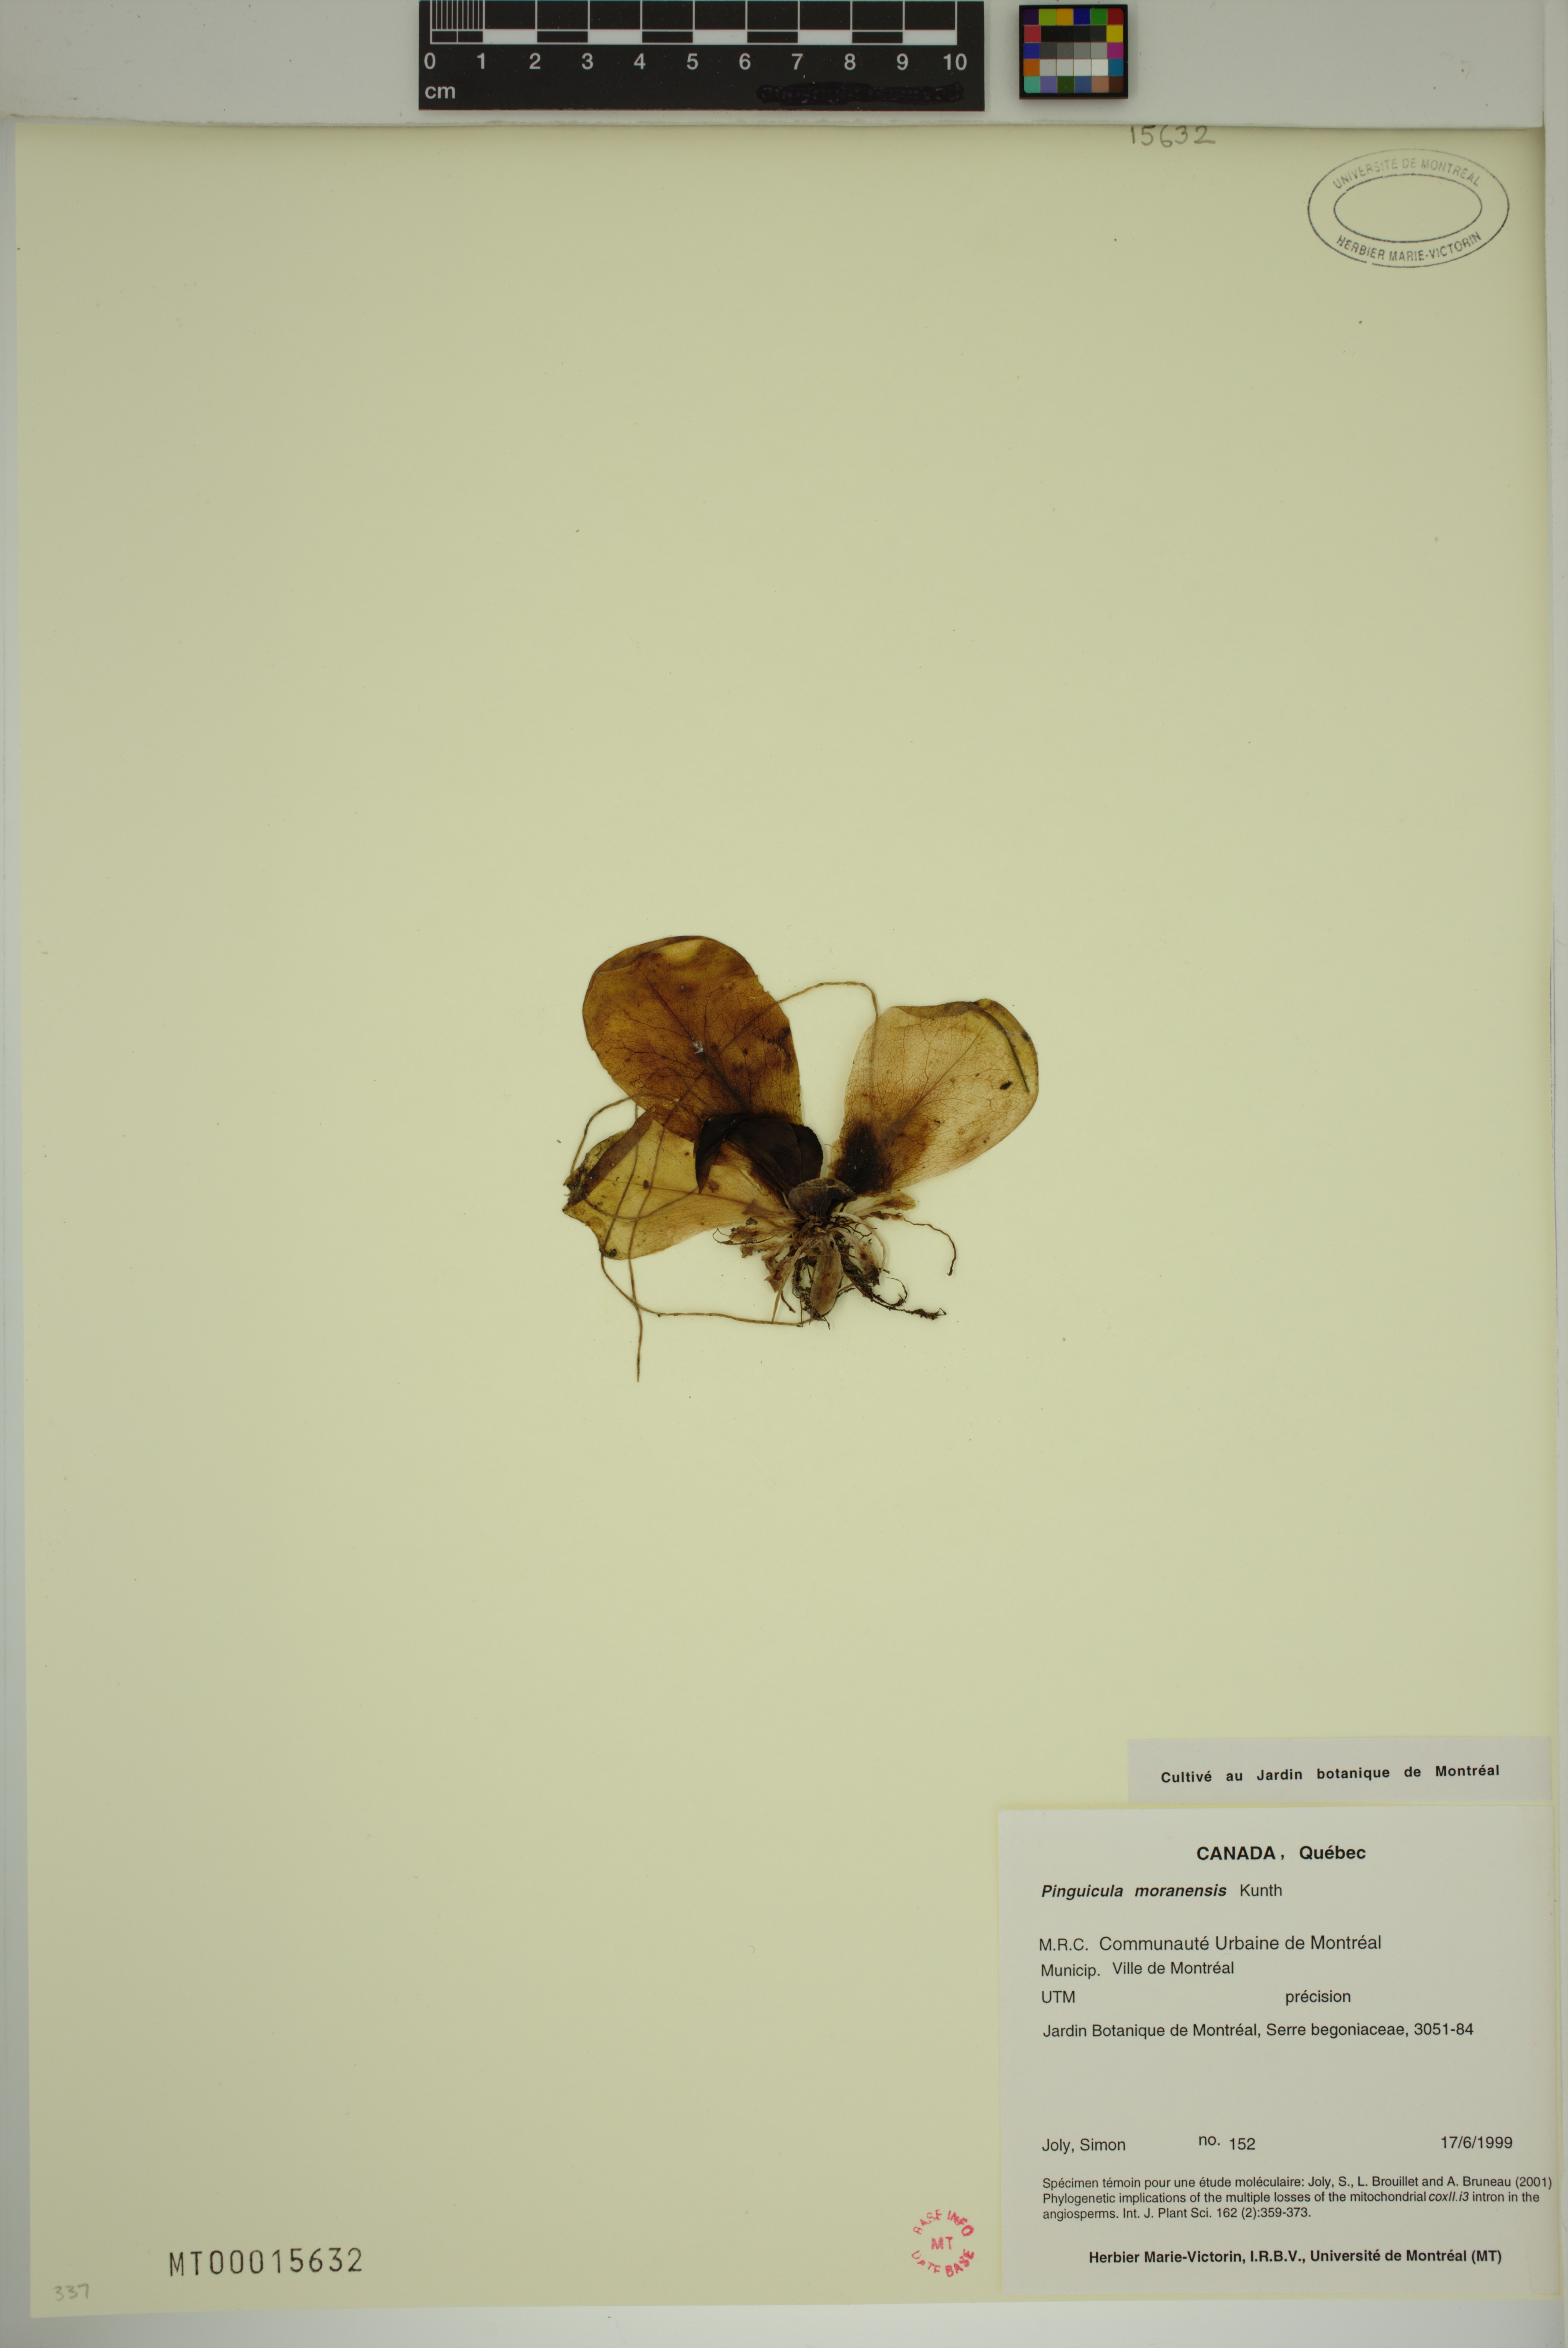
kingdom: Plantae
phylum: Tracheophyta
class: Magnoliopsida
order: Lamiales
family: Lentibulariaceae
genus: Pinguicula
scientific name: Pinguicula moranensis
